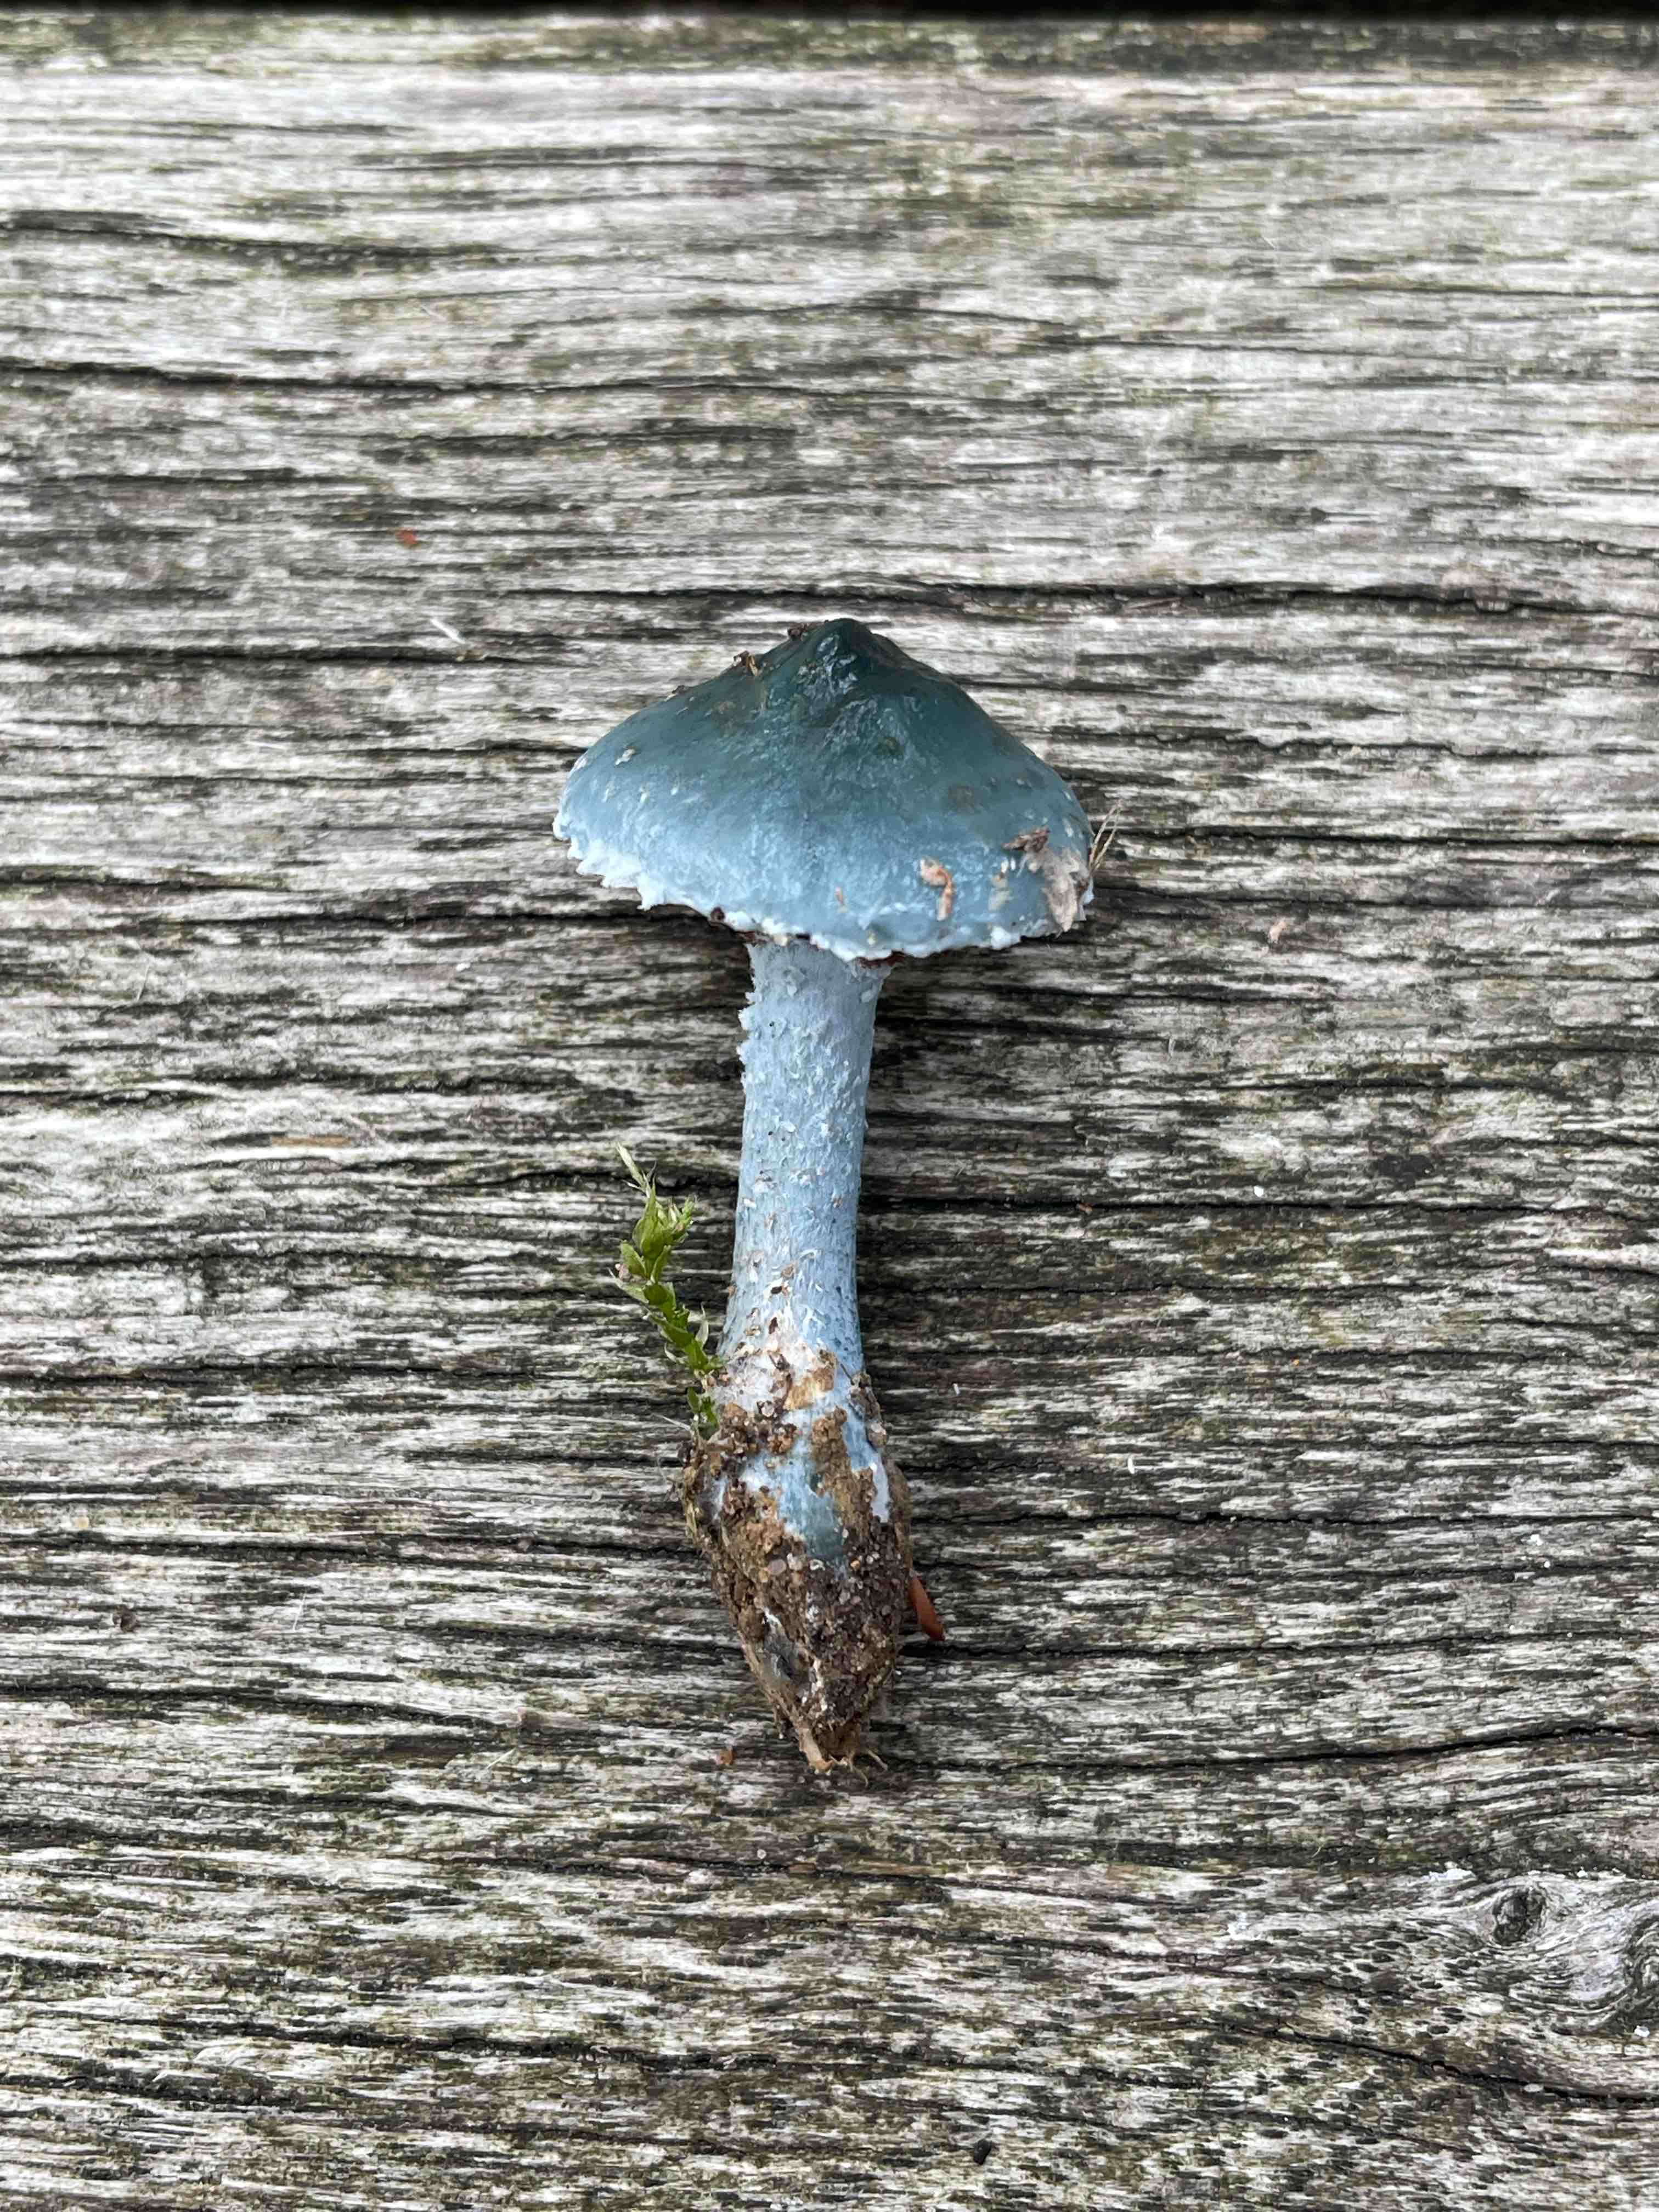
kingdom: Fungi
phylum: Basidiomycota
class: Agaricomycetes
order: Agaricales
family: Strophariaceae
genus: Stropharia
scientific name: Stropharia aeruginosa
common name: spanskgrøn bredblad
